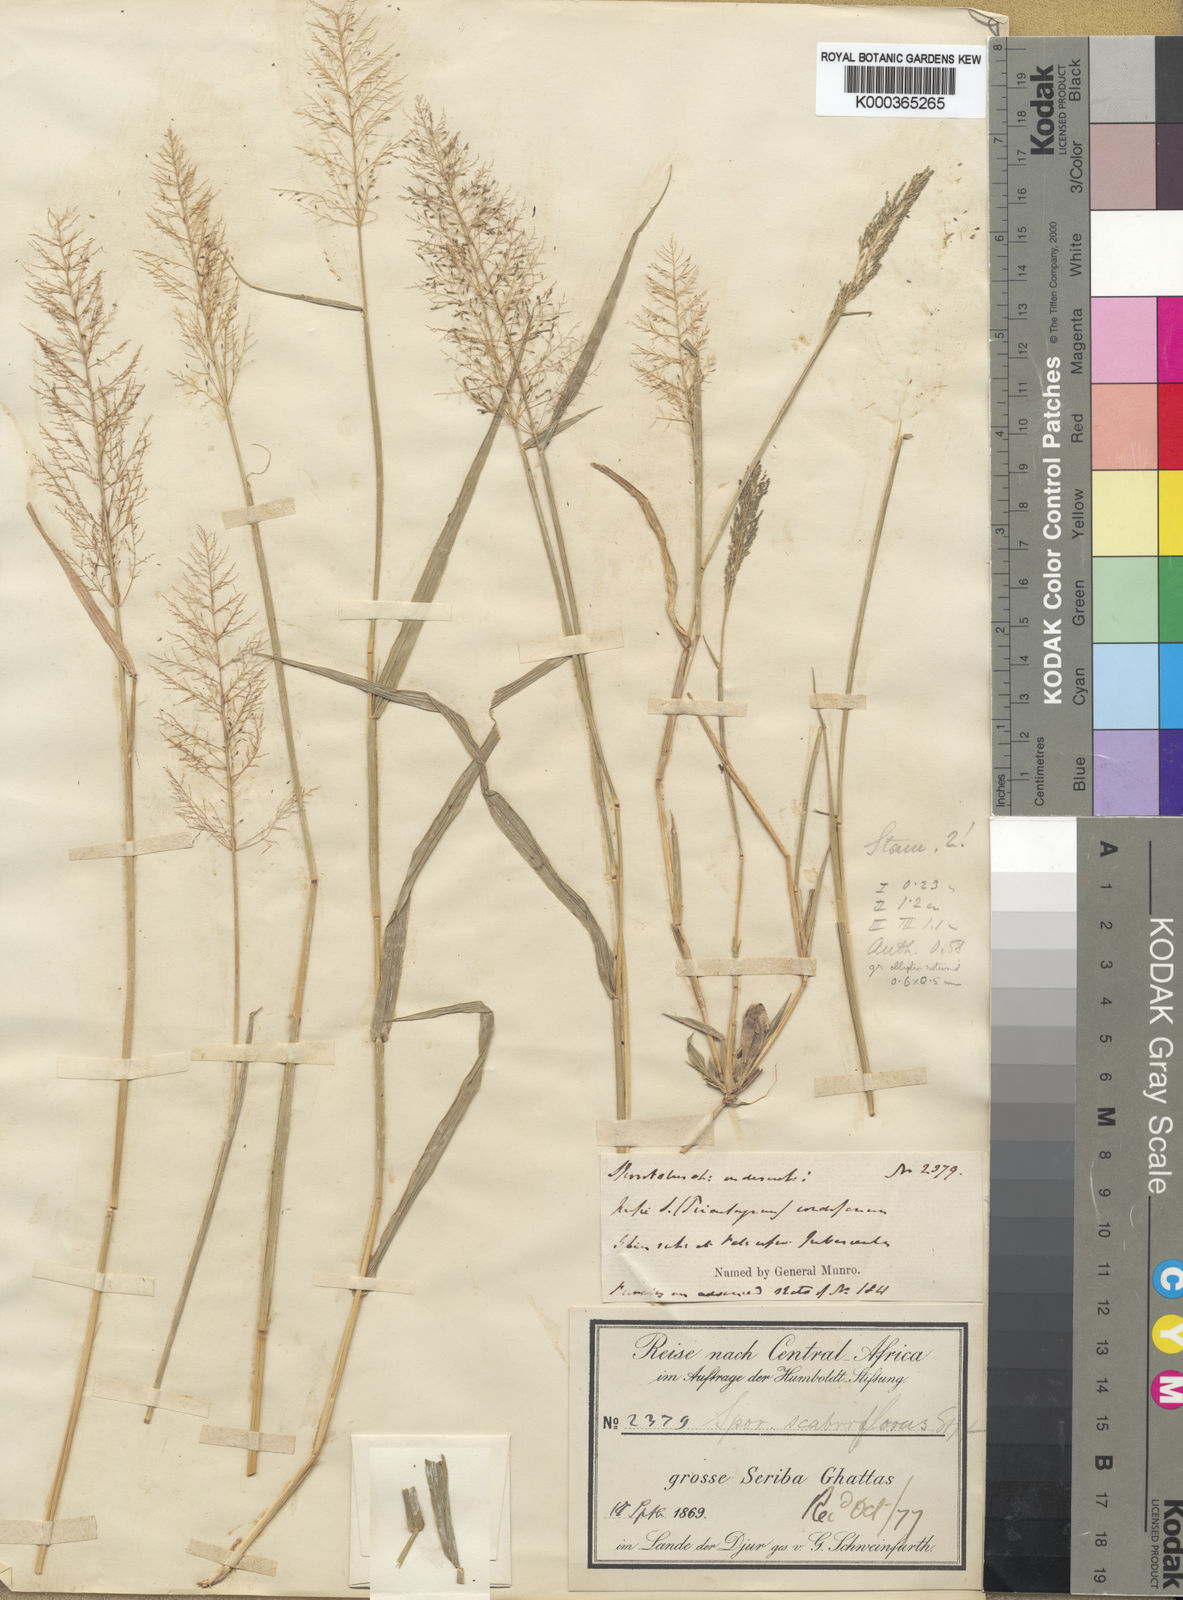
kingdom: Plantae
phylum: Tracheophyta
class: Liliopsida
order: Poales
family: Poaceae
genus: Sporobolus
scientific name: Sporobolus microprotus
